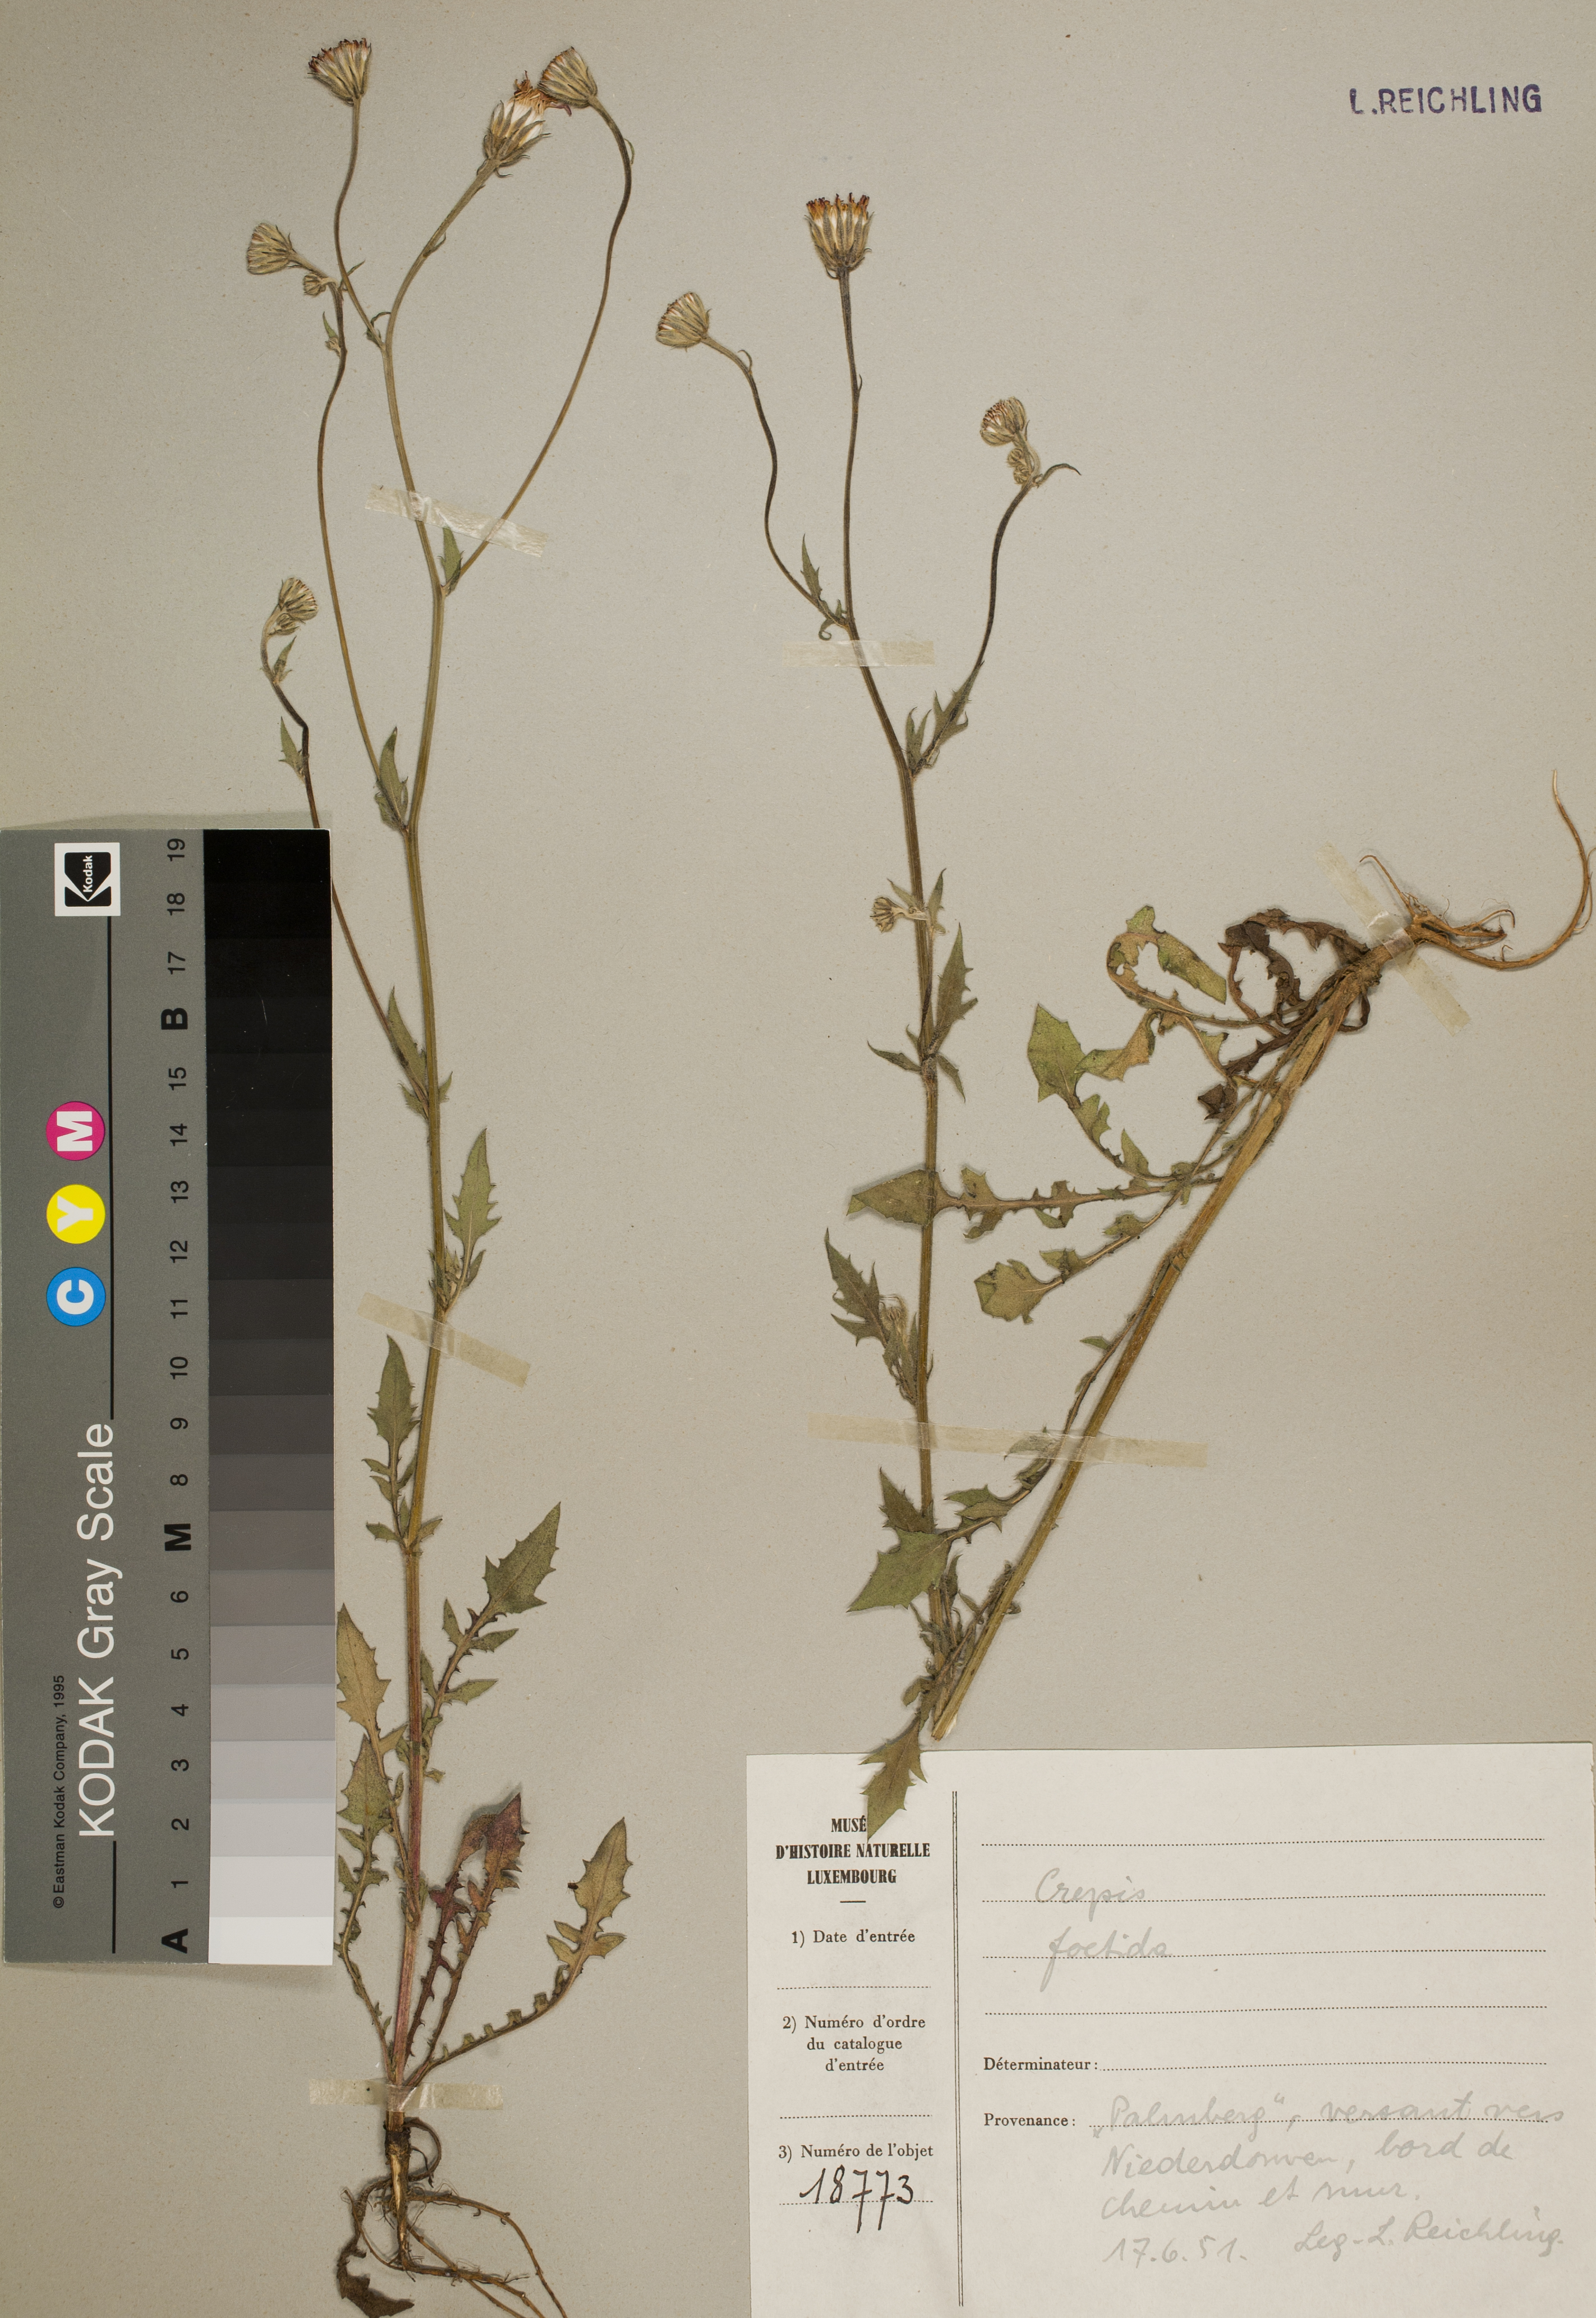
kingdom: Plantae
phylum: Tracheophyta
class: Magnoliopsida
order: Asterales
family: Asteraceae
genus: Crepis
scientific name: Crepis foetida
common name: Stinking hawk's-beard
